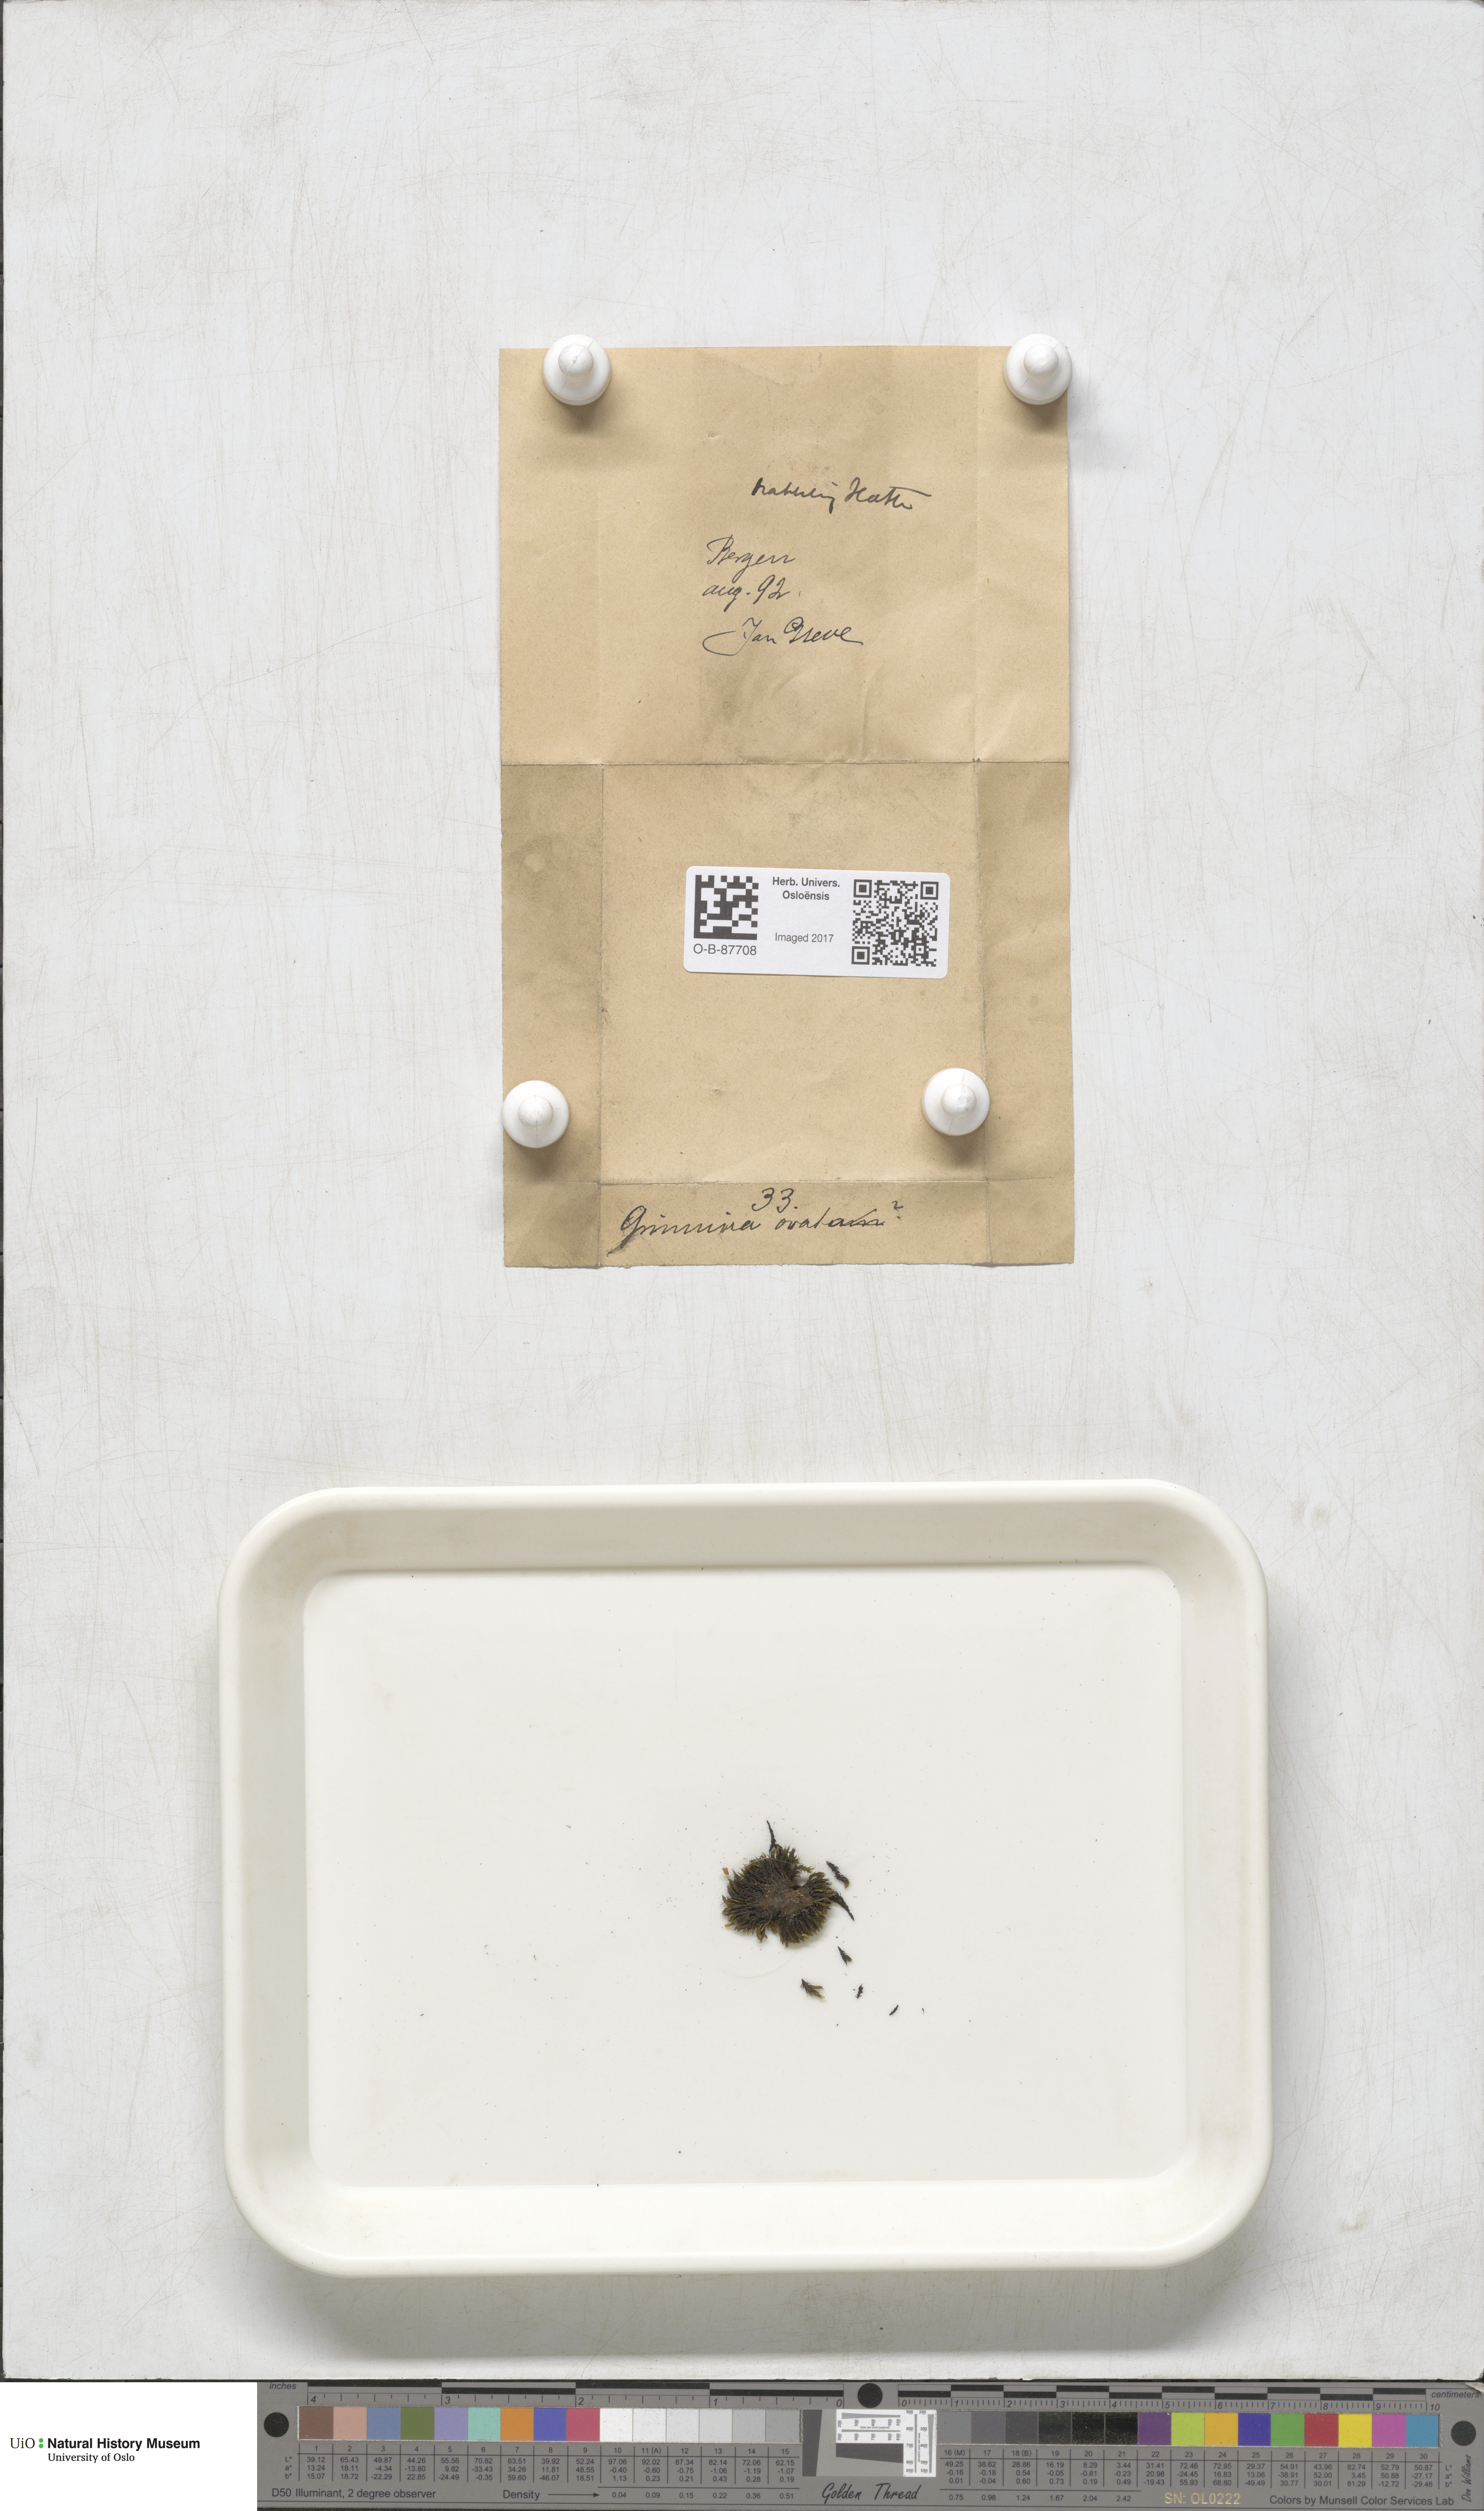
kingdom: Plantae
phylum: Bryophyta
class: Bryopsida
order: Grimmiales
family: Grimmiaceae
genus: Grimmia
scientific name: Grimmia ovalis
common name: Oval grimmia
